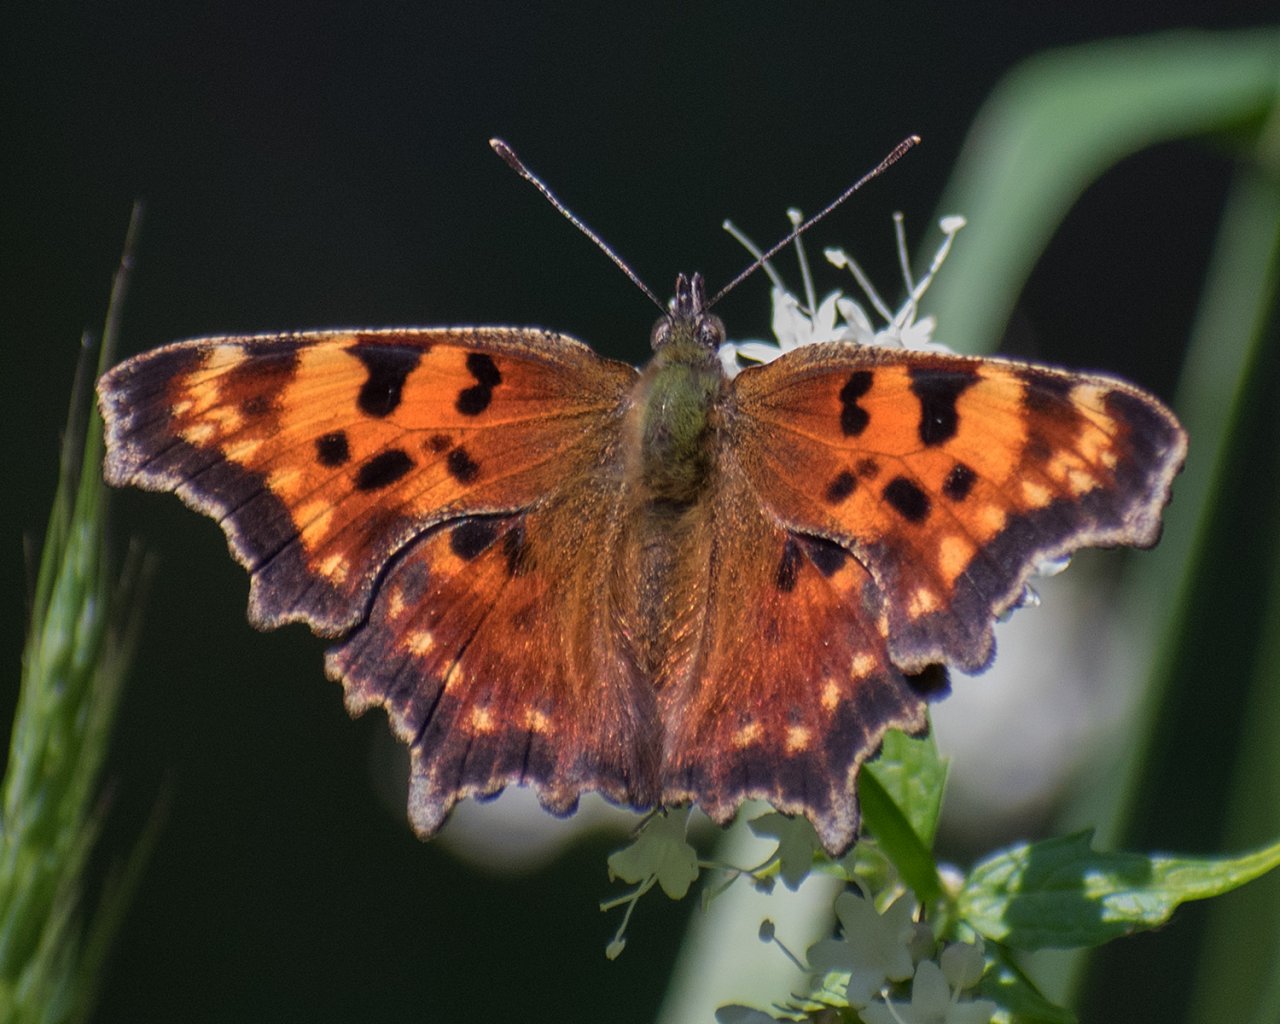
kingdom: Animalia
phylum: Arthropoda
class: Insecta
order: Lepidoptera
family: Nymphalidae
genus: Polygonia
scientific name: Polygonia faunus
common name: Green Comma
